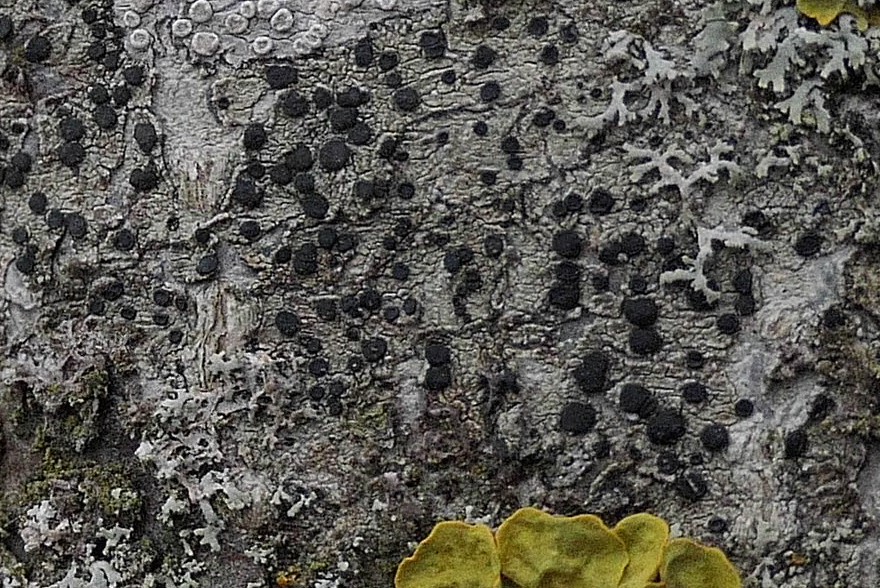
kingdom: Fungi
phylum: Ascomycota
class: Lecanoromycetes
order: Lecanorales
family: Lecanoraceae
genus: Lecidella
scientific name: Lecidella elaeochroma
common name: grågrøn skivelav
